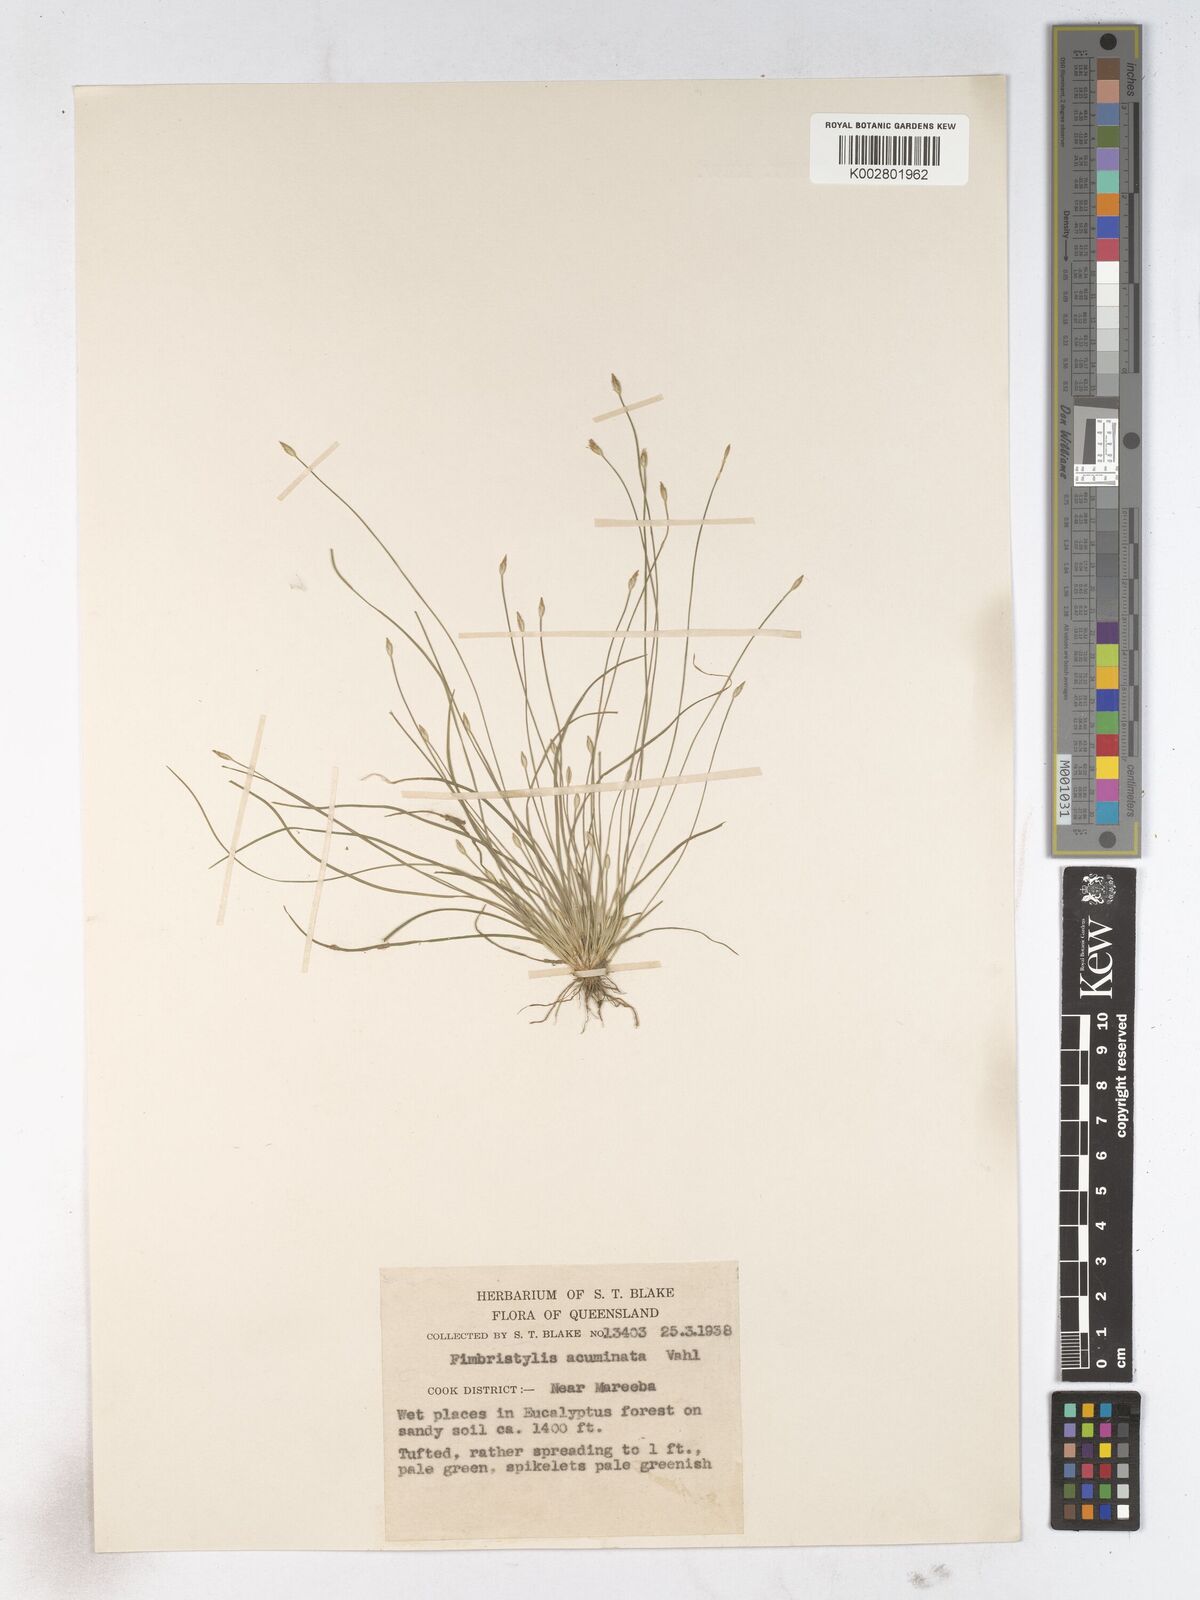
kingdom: Plantae
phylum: Tracheophyta
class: Liliopsida
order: Poales
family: Cyperaceae
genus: Fimbristylis
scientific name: Fimbristylis acicularis
